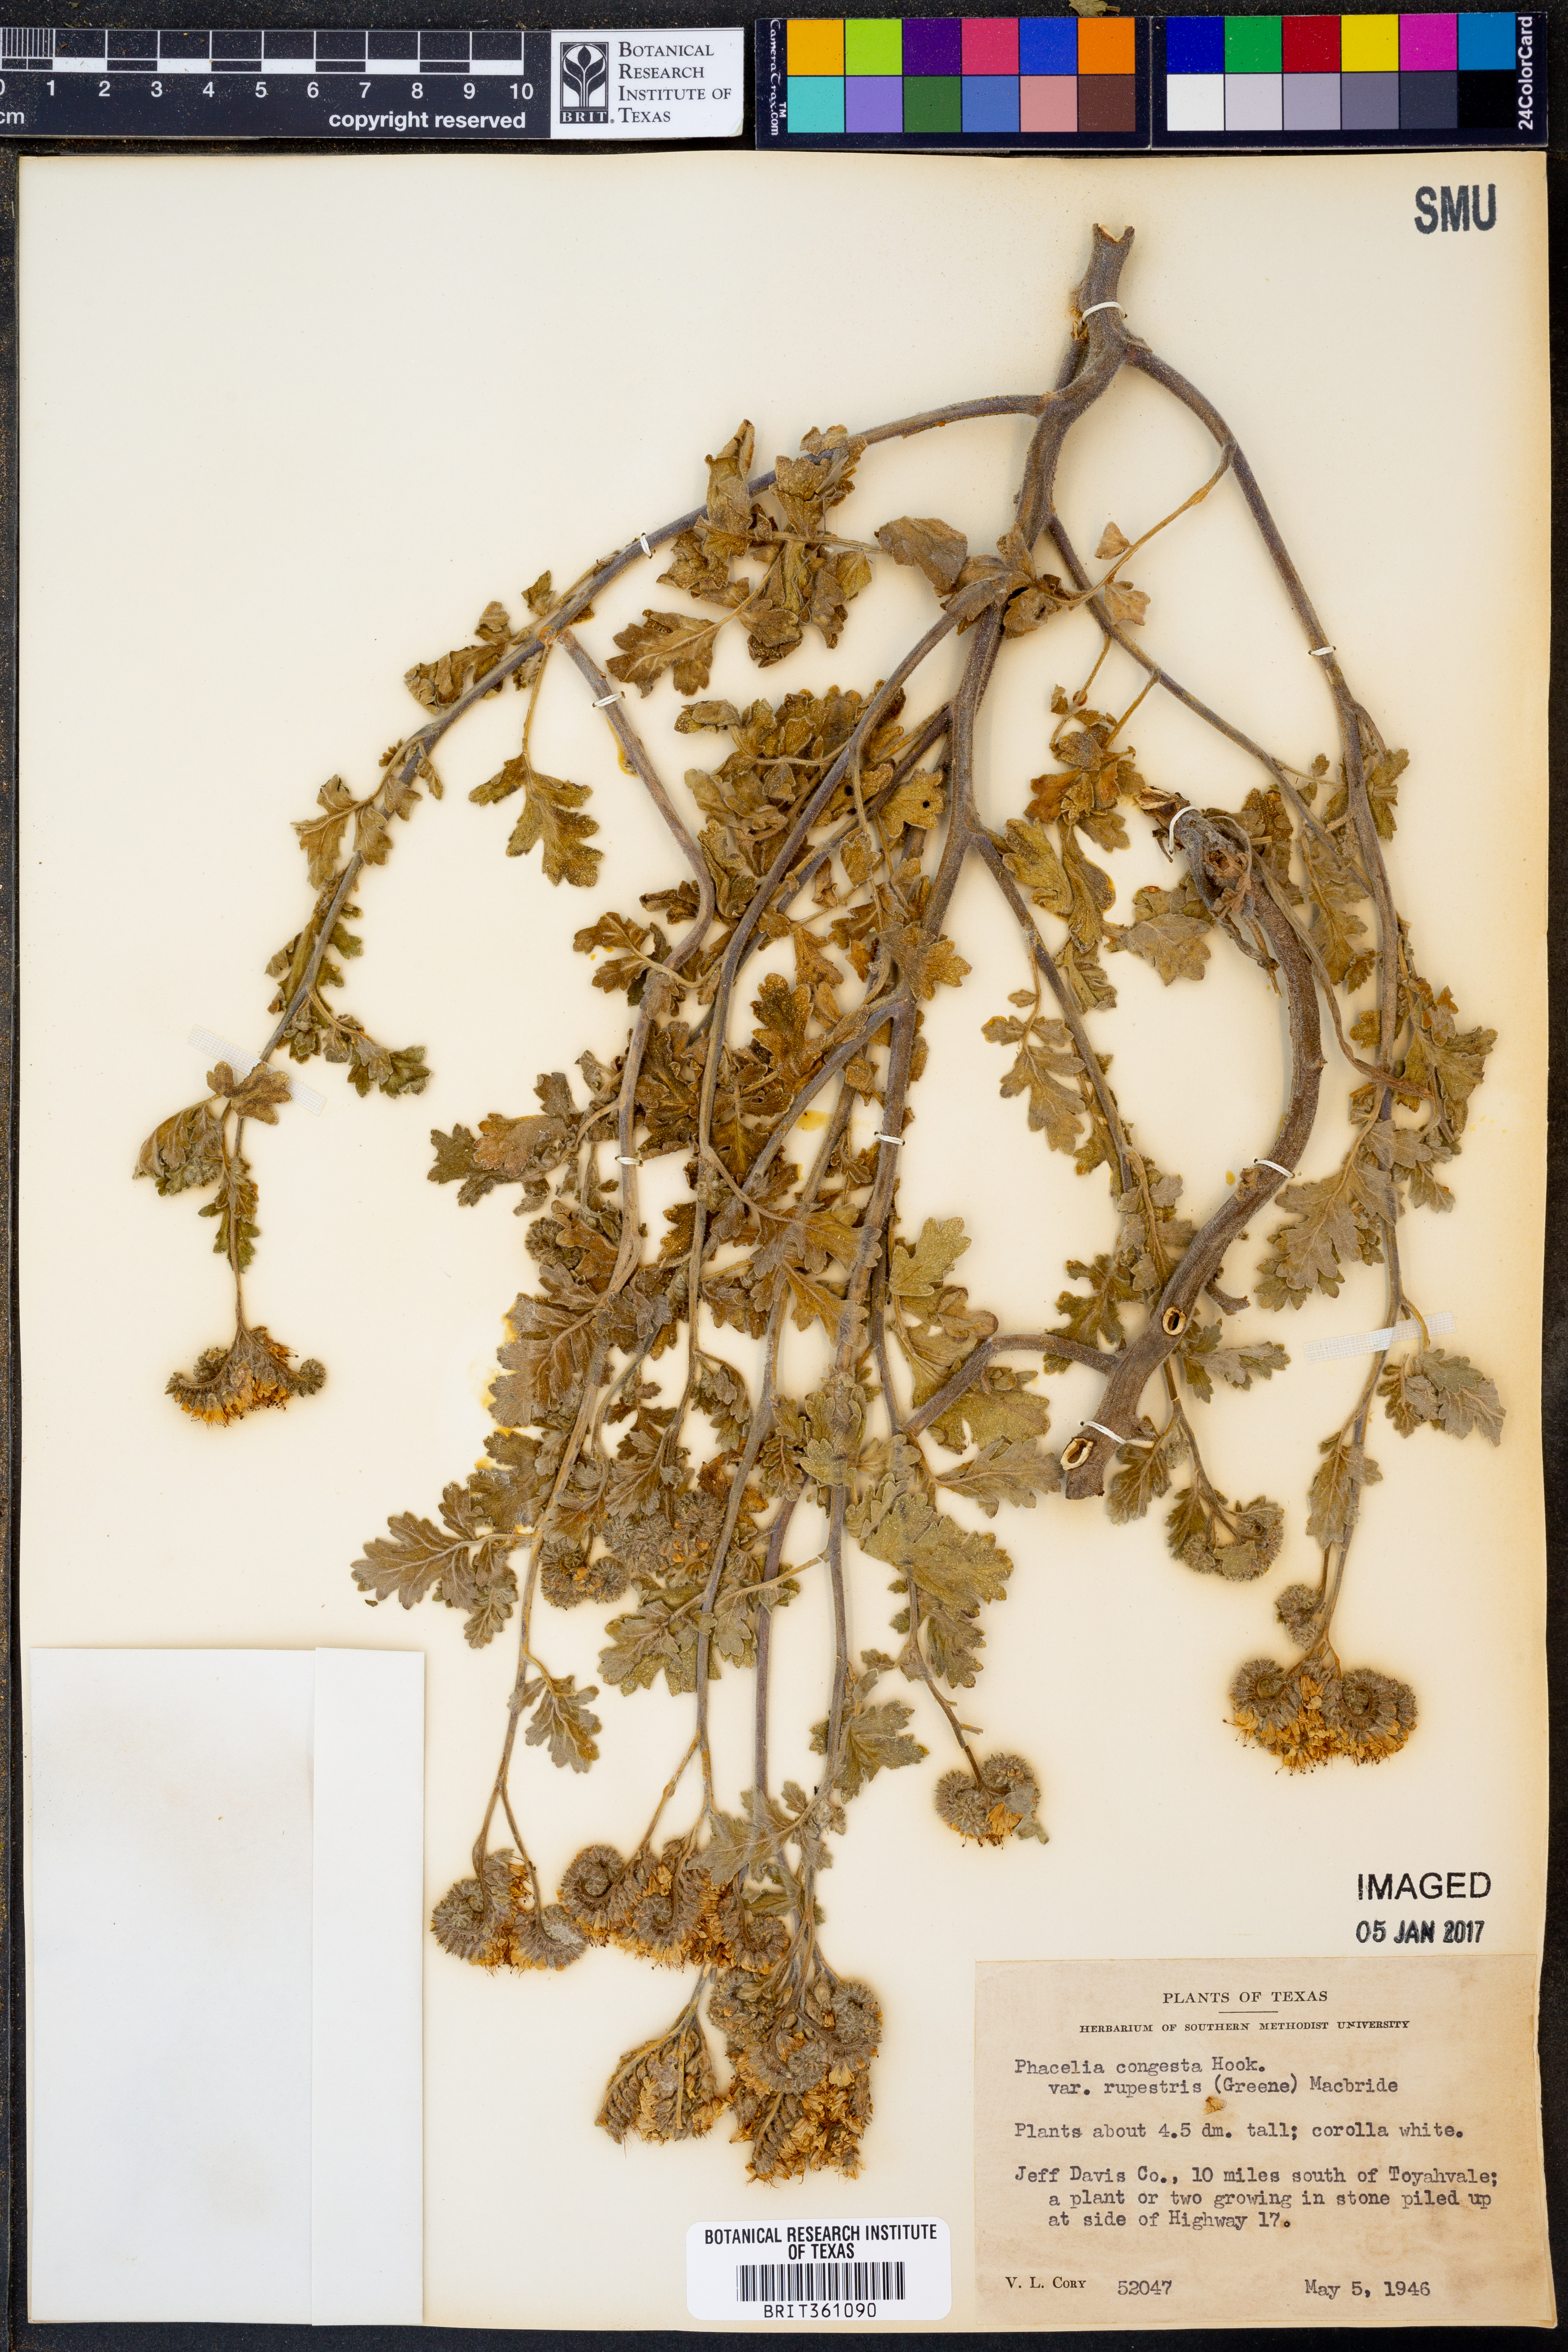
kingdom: Plantae
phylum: Tracheophyta
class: Magnoliopsida
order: Boraginales
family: Hydrophyllaceae
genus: Phacelia
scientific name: Phacelia rupestris
